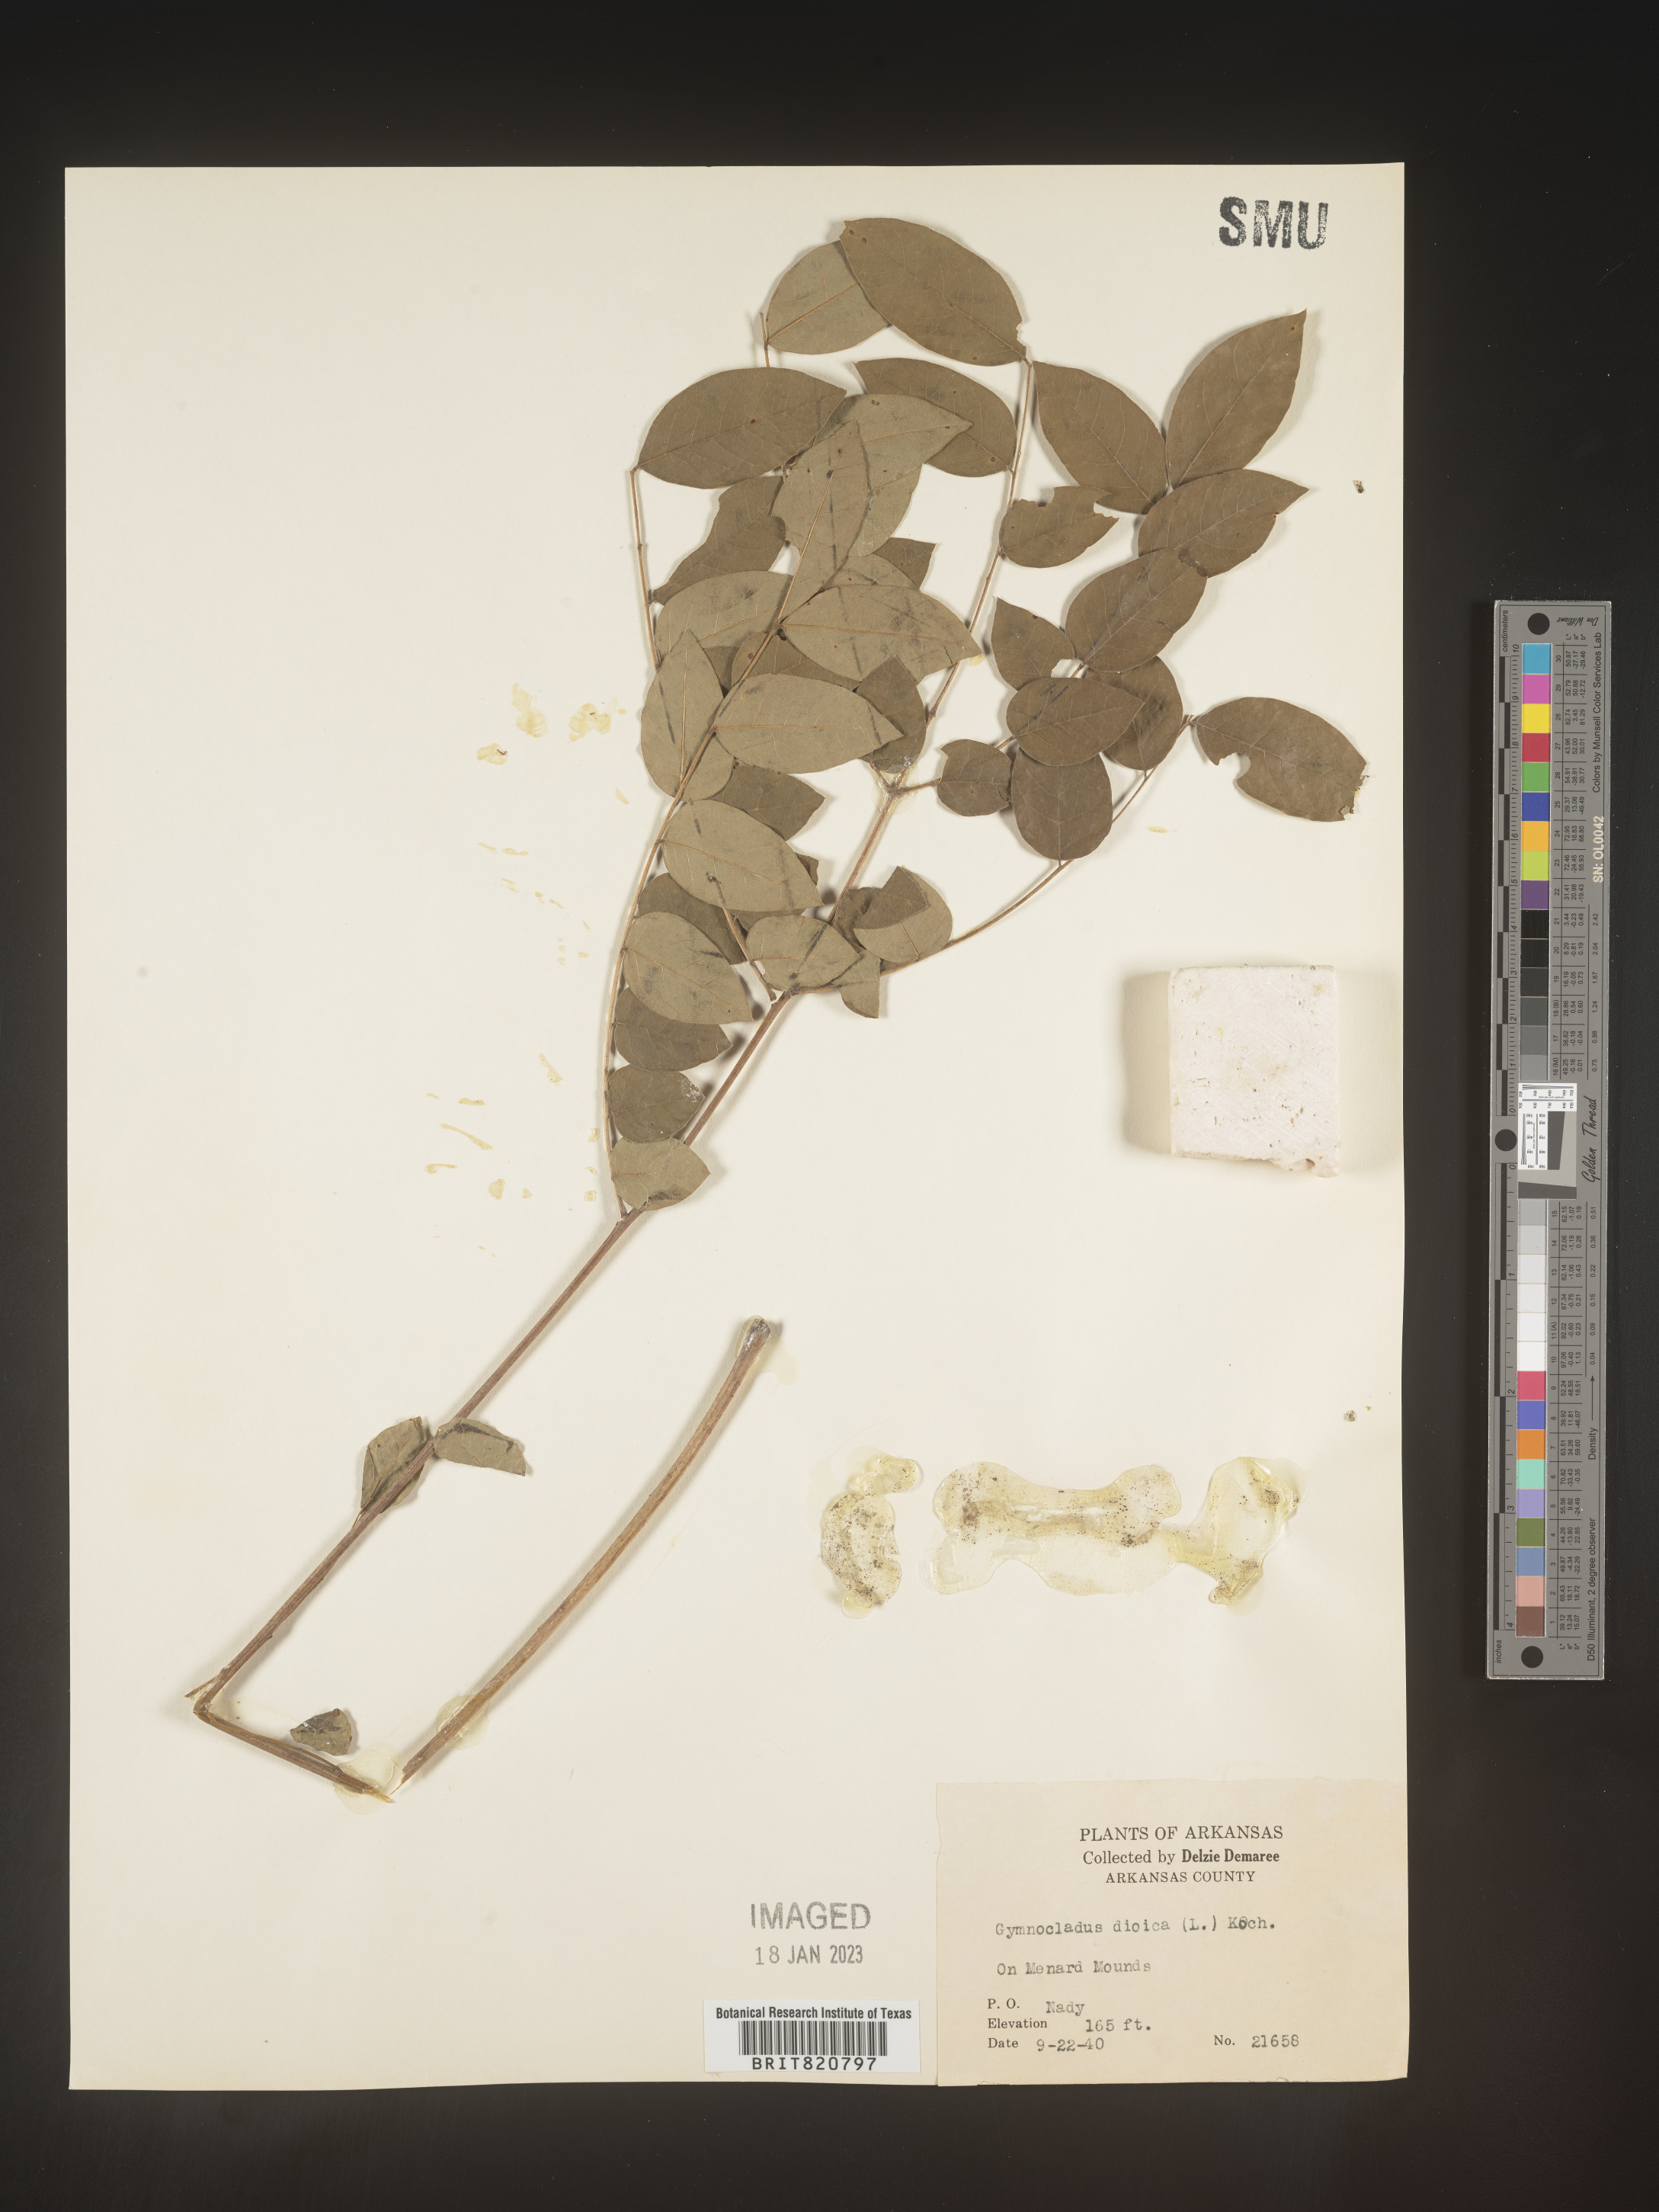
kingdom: Plantae
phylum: Tracheophyta
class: Magnoliopsida
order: Fabales
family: Fabaceae
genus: Gymnocladus
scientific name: Gymnocladus
